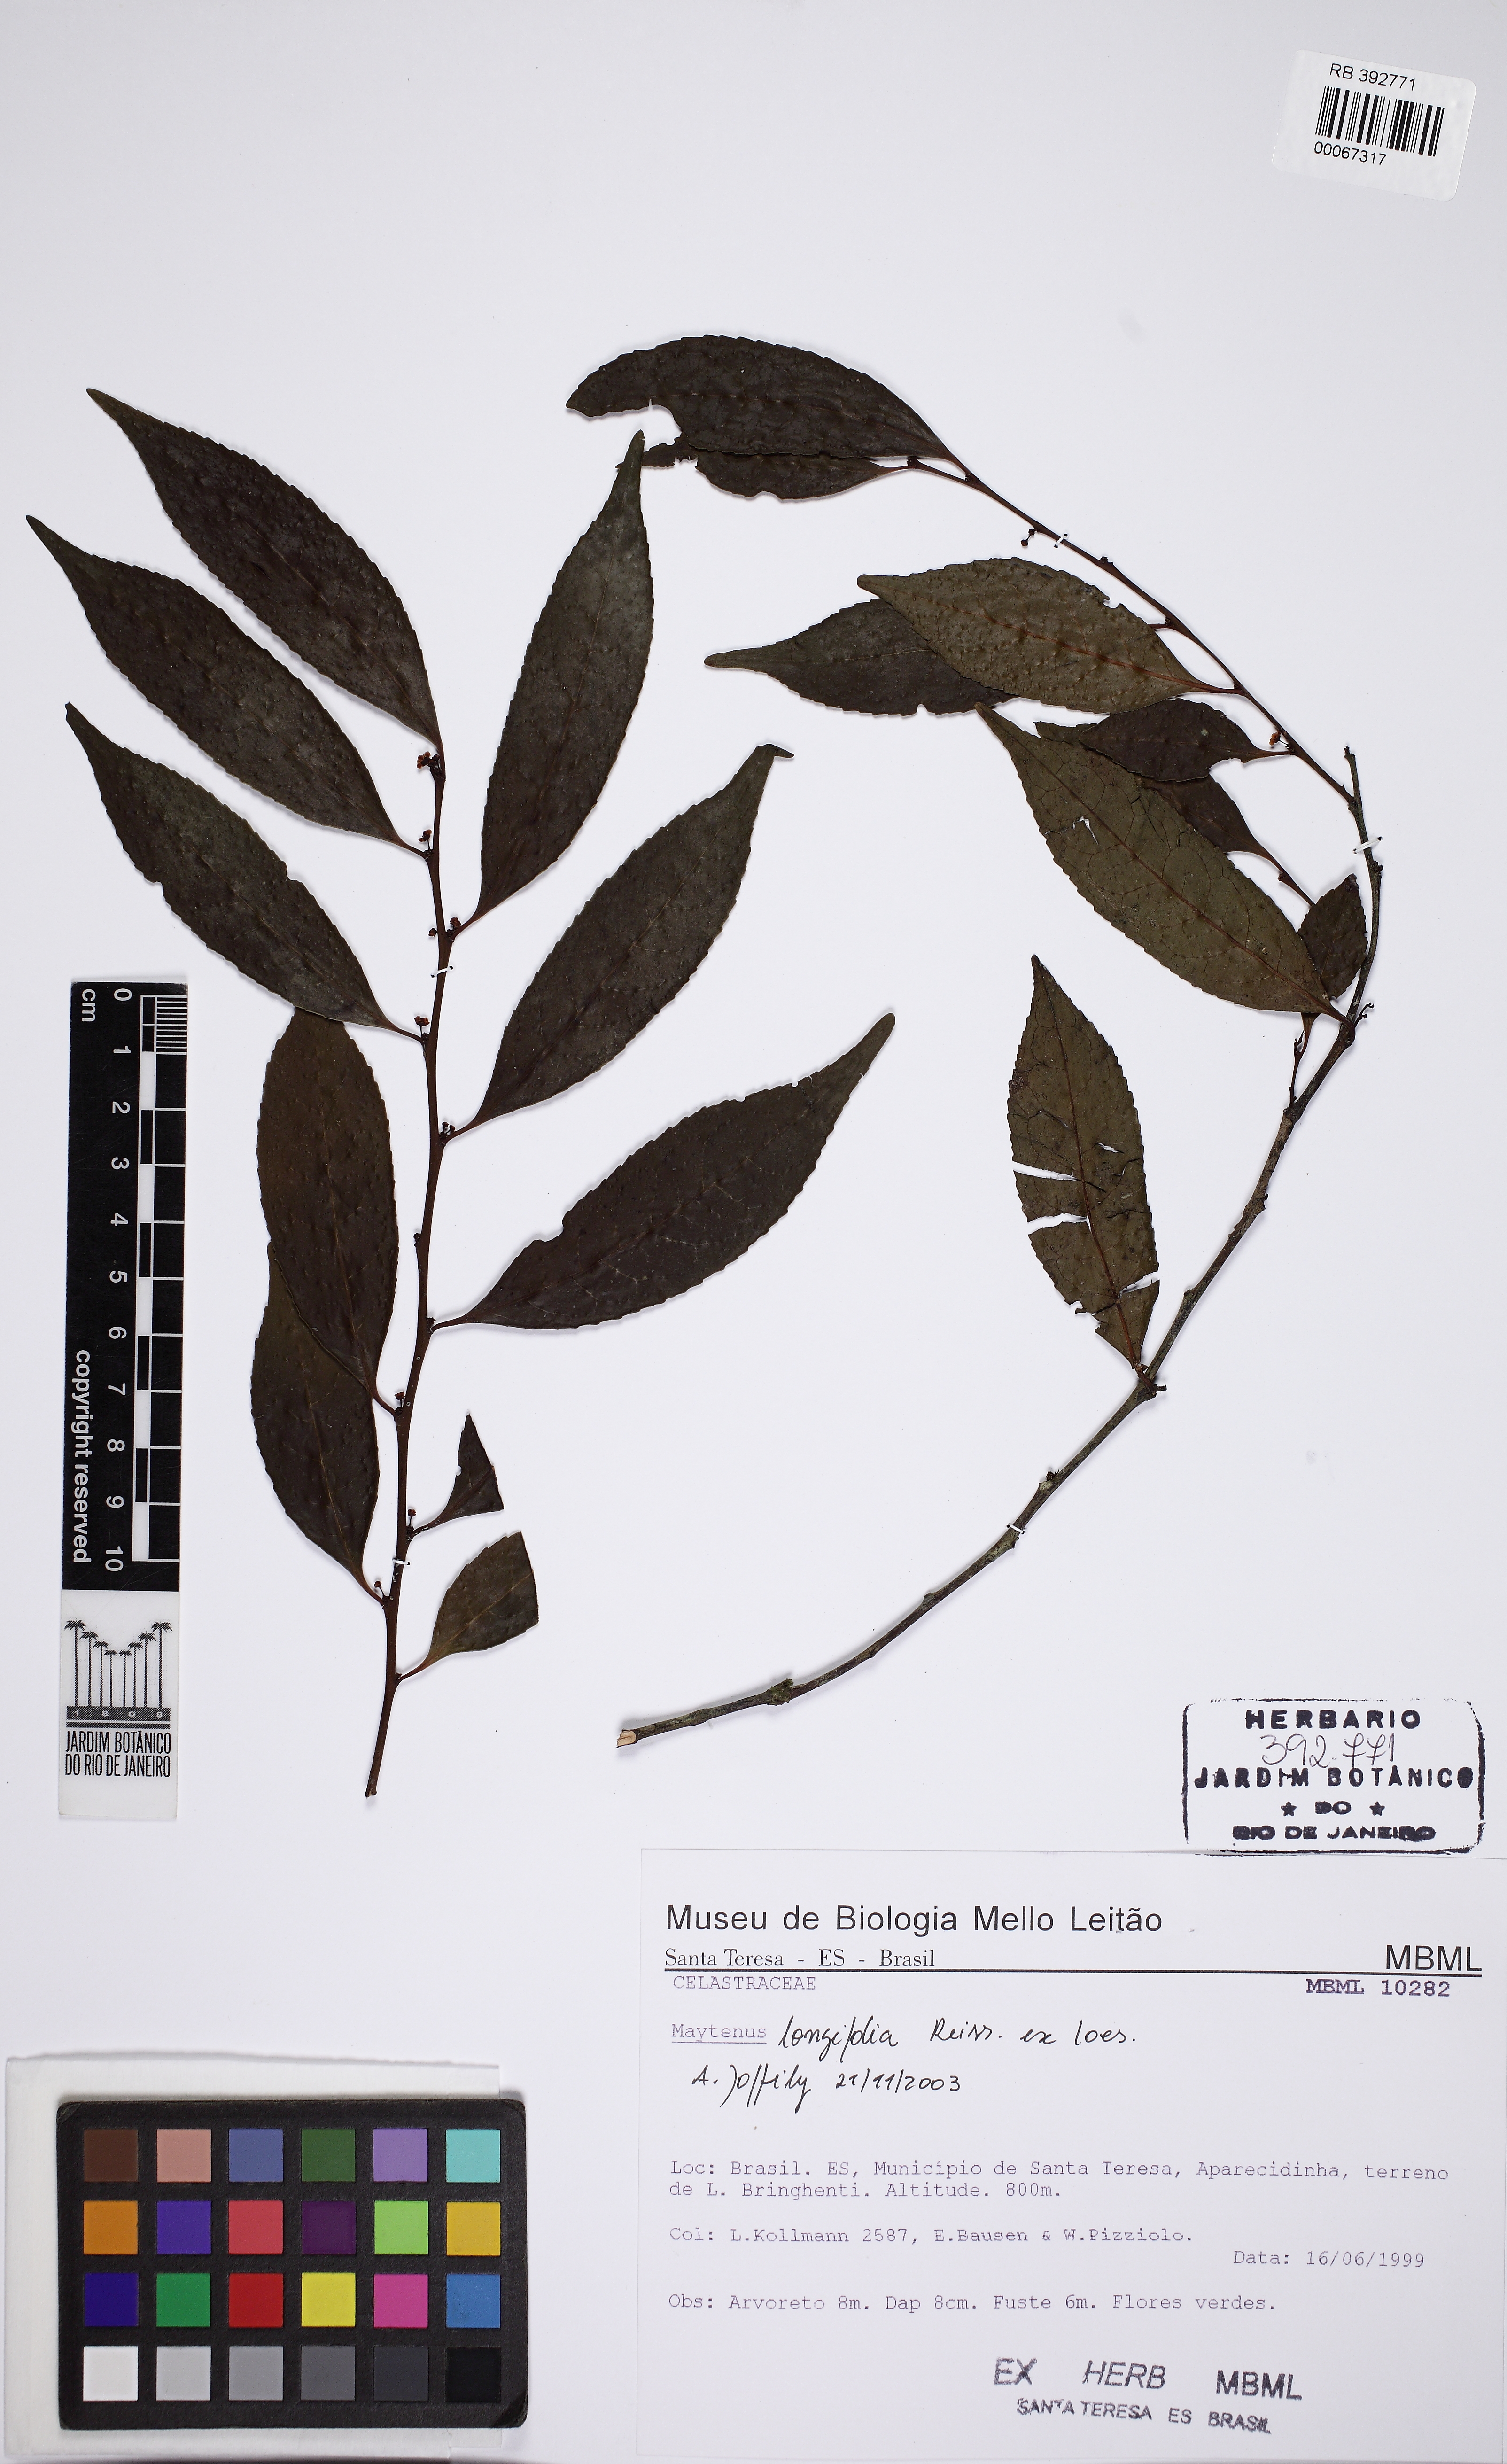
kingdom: Plantae
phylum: Tracheophyta
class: Magnoliopsida
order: Celastrales
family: Celastraceae
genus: Monteverdia
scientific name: Monteverdia longifolia
